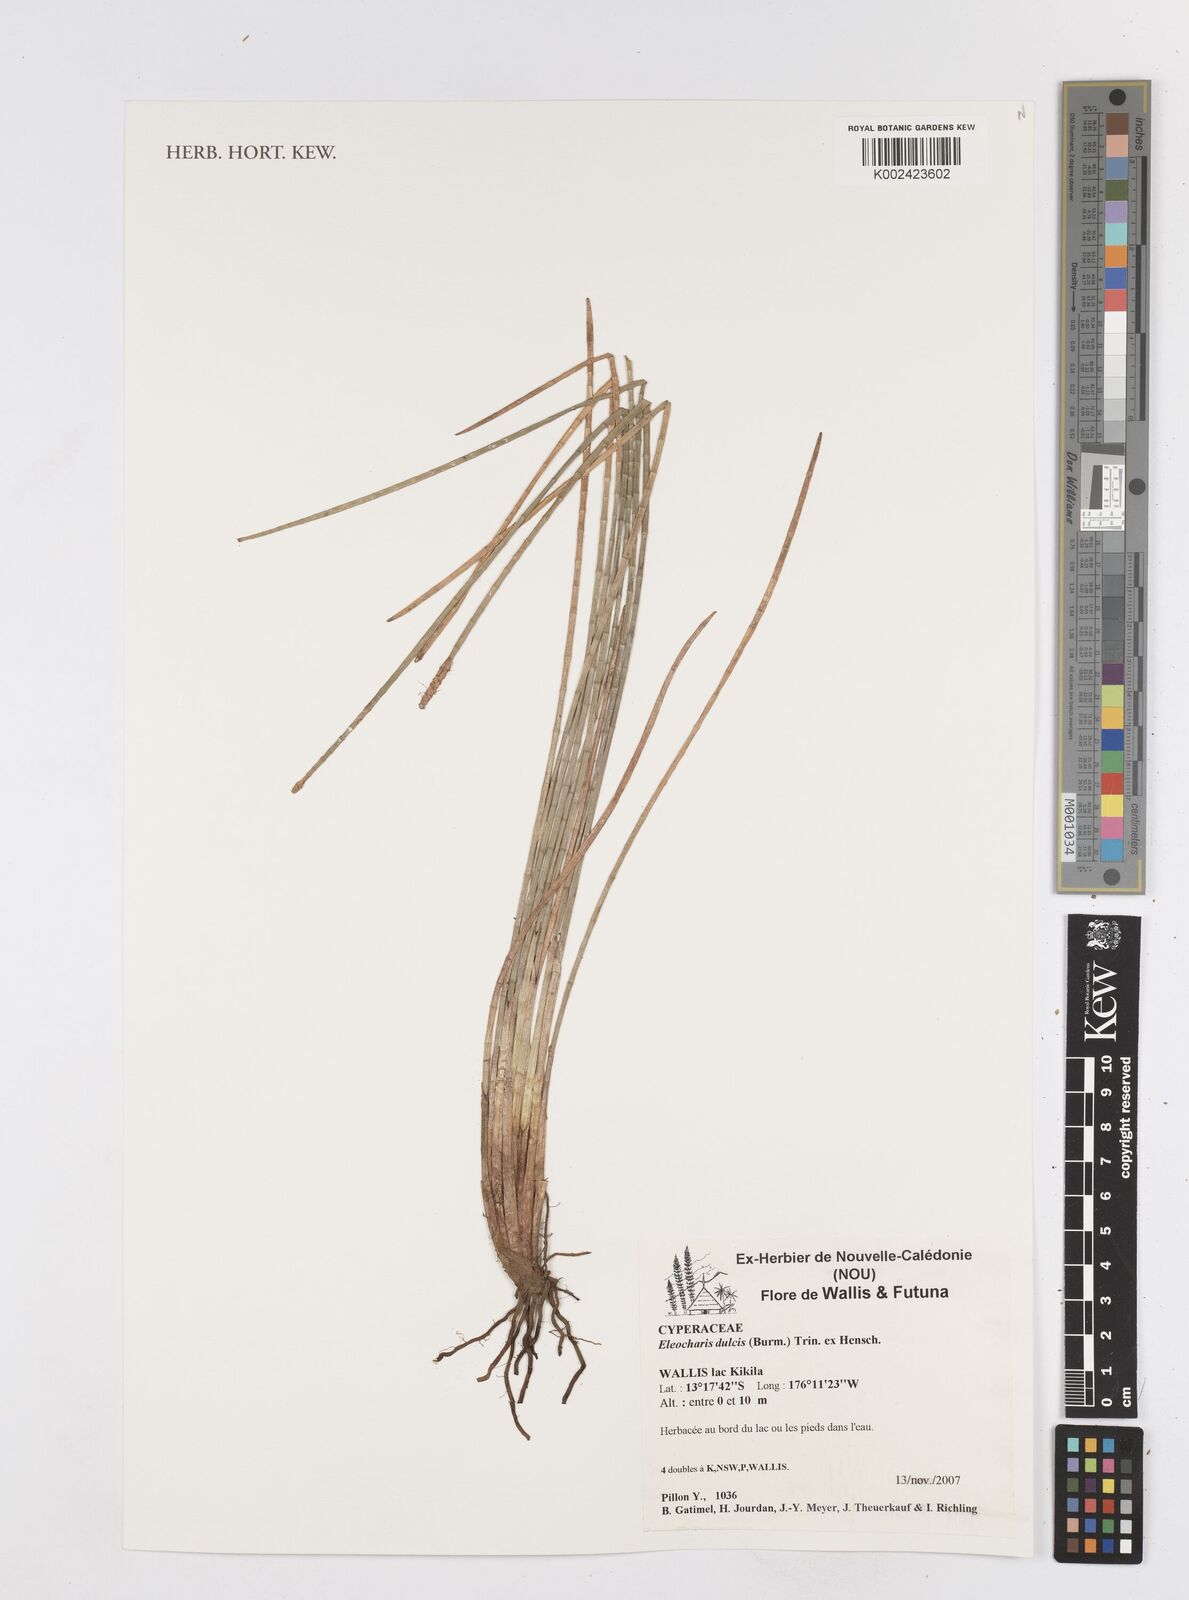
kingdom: Plantae
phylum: Tracheophyta
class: Liliopsida
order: Poales
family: Cyperaceae
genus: Eleocharis
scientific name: Eleocharis dulcis
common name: Chinese water chestnut
